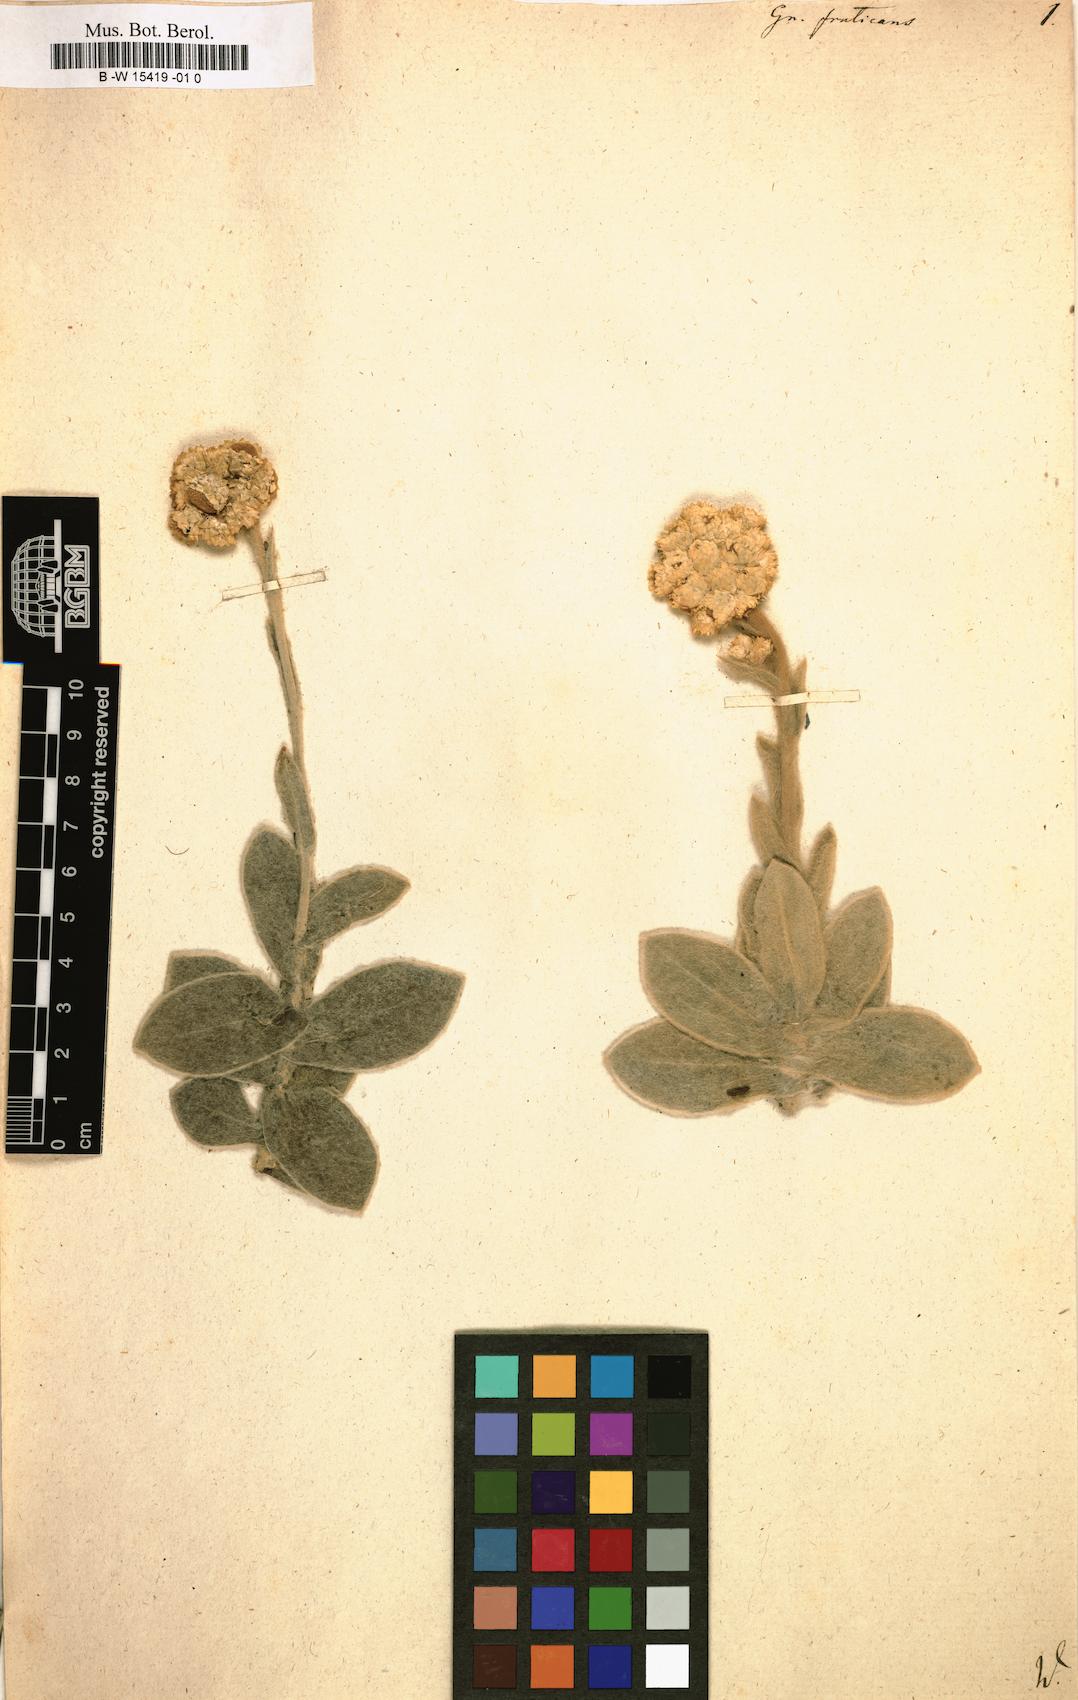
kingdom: Plantae
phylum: Tracheophyta
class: Magnoliopsida
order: Asterales
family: Asteraceae
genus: Helichrysum
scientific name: Helichrysum fruticans
